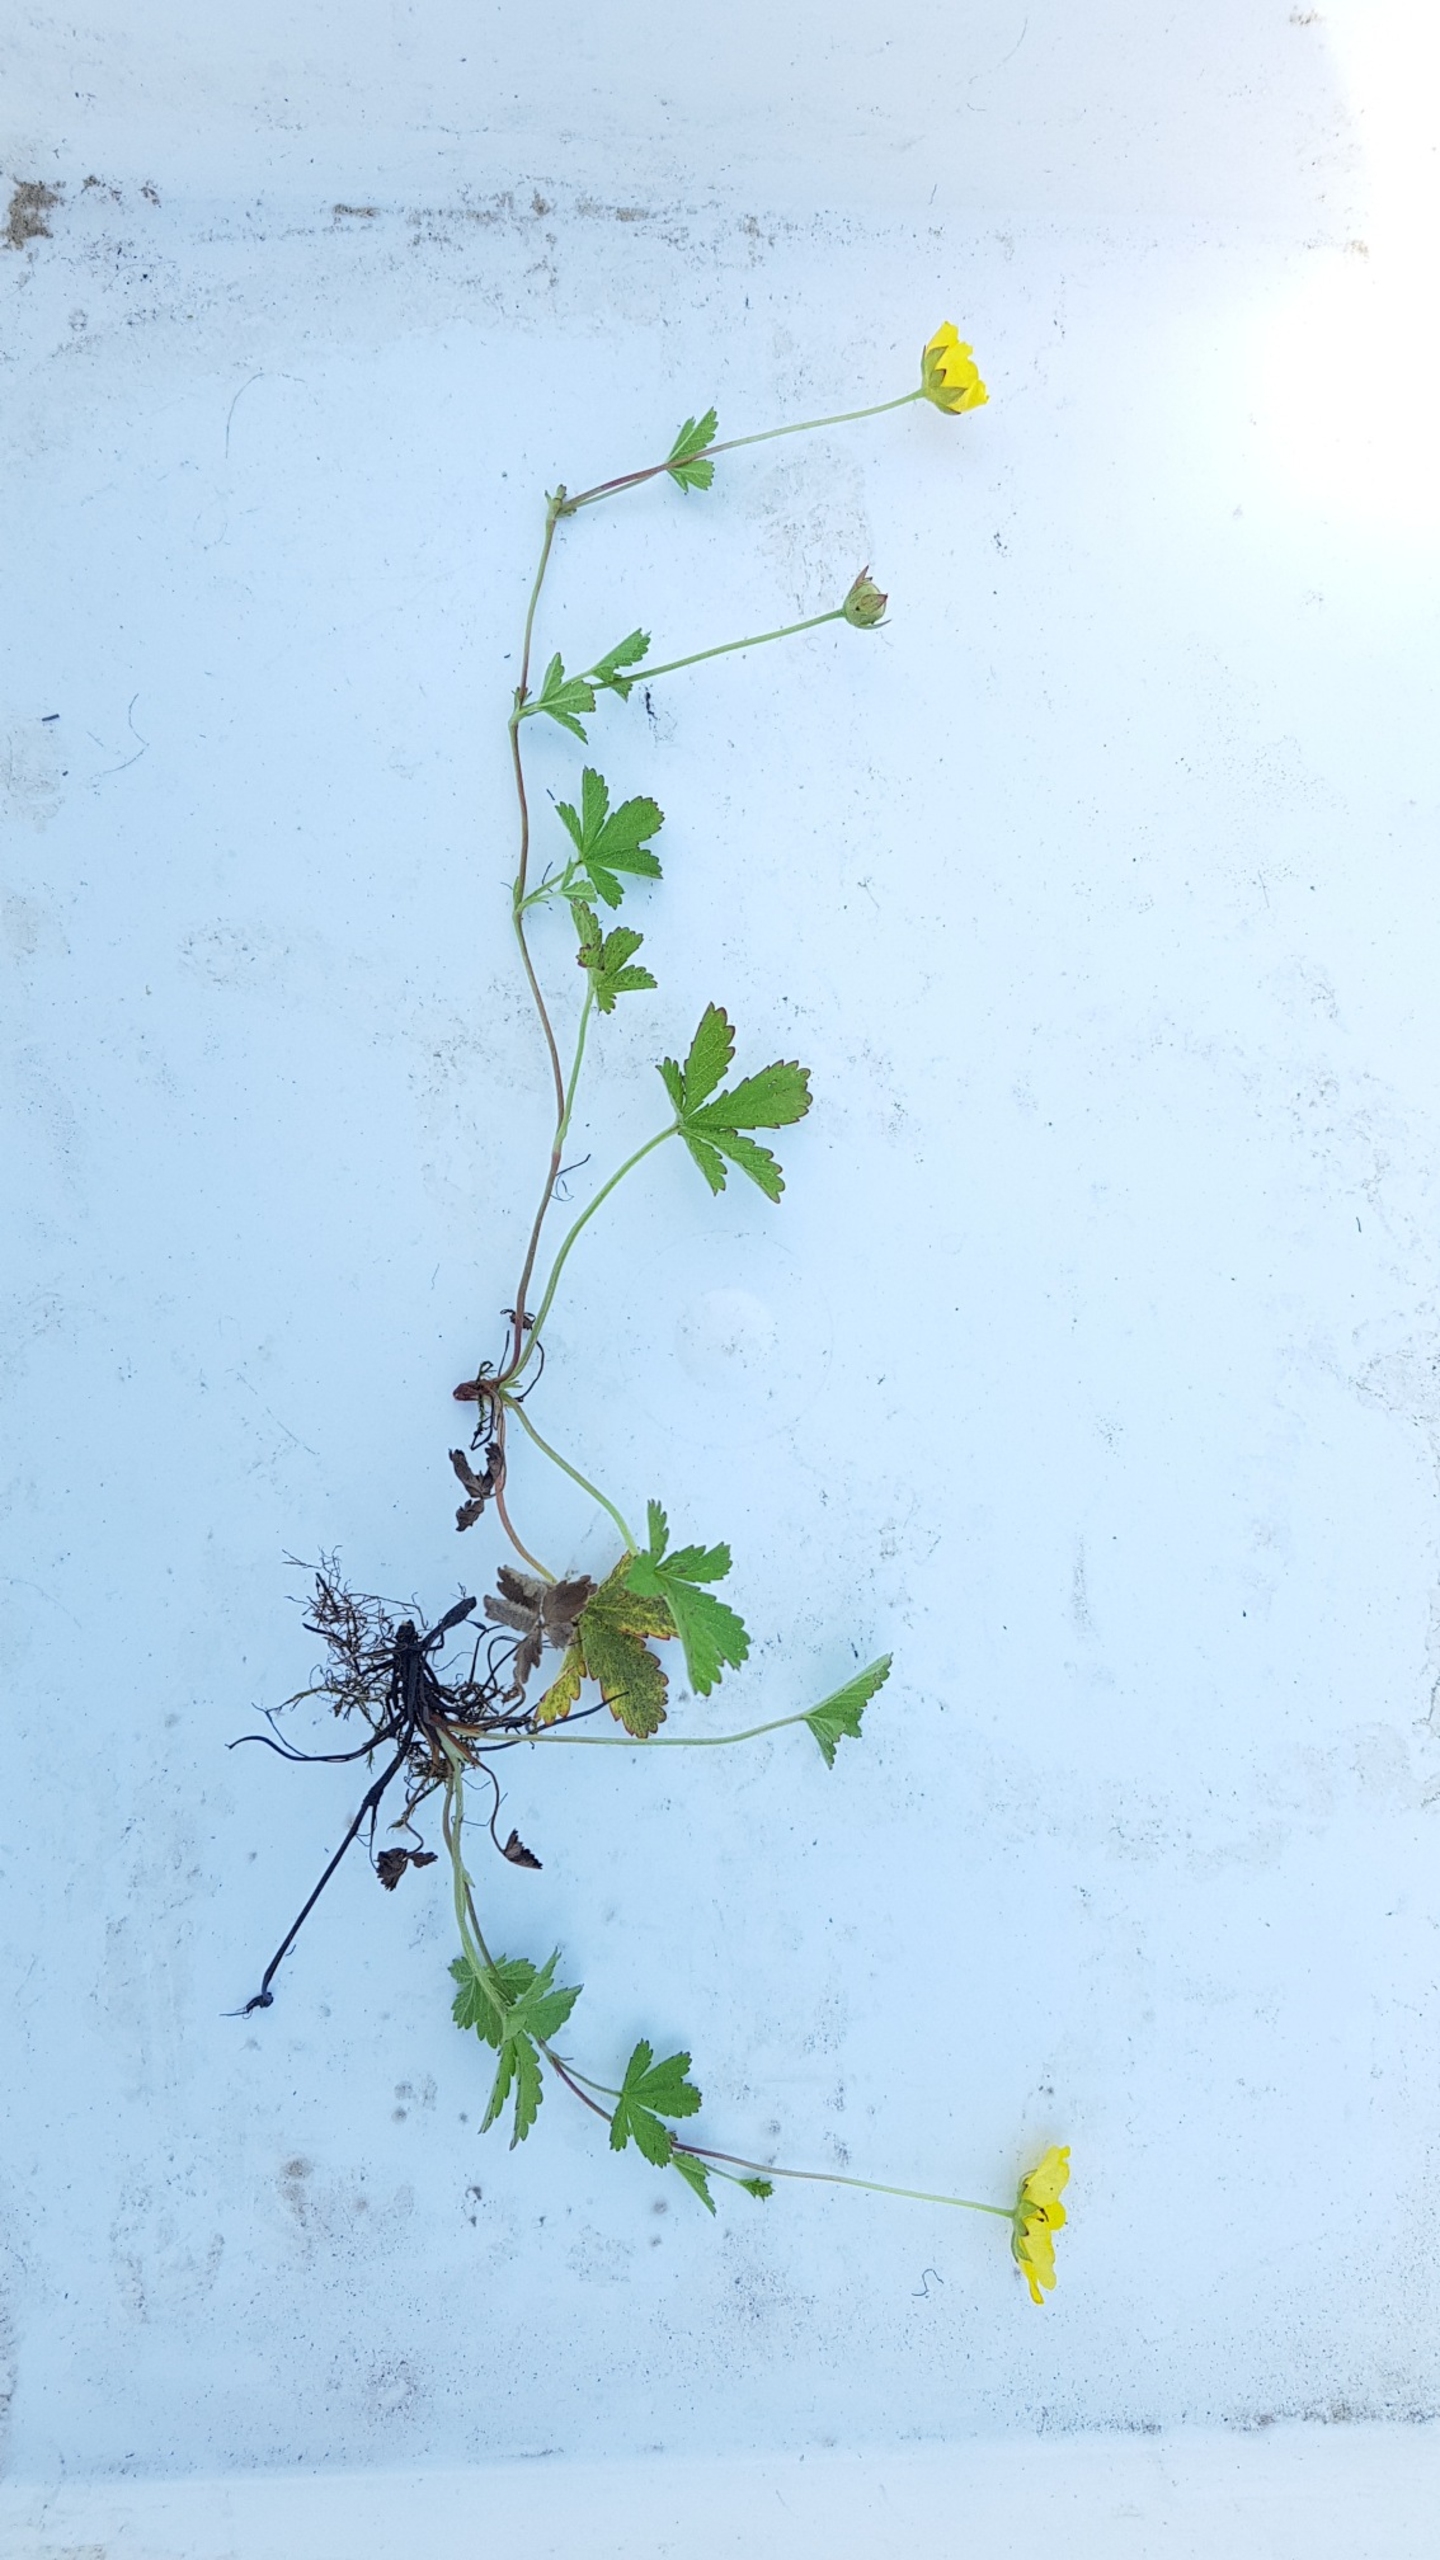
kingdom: Plantae
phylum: Tracheophyta
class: Magnoliopsida
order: Rosales
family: Rosaceae
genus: Potentilla
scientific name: Potentilla reptans
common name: Krybende potentil
